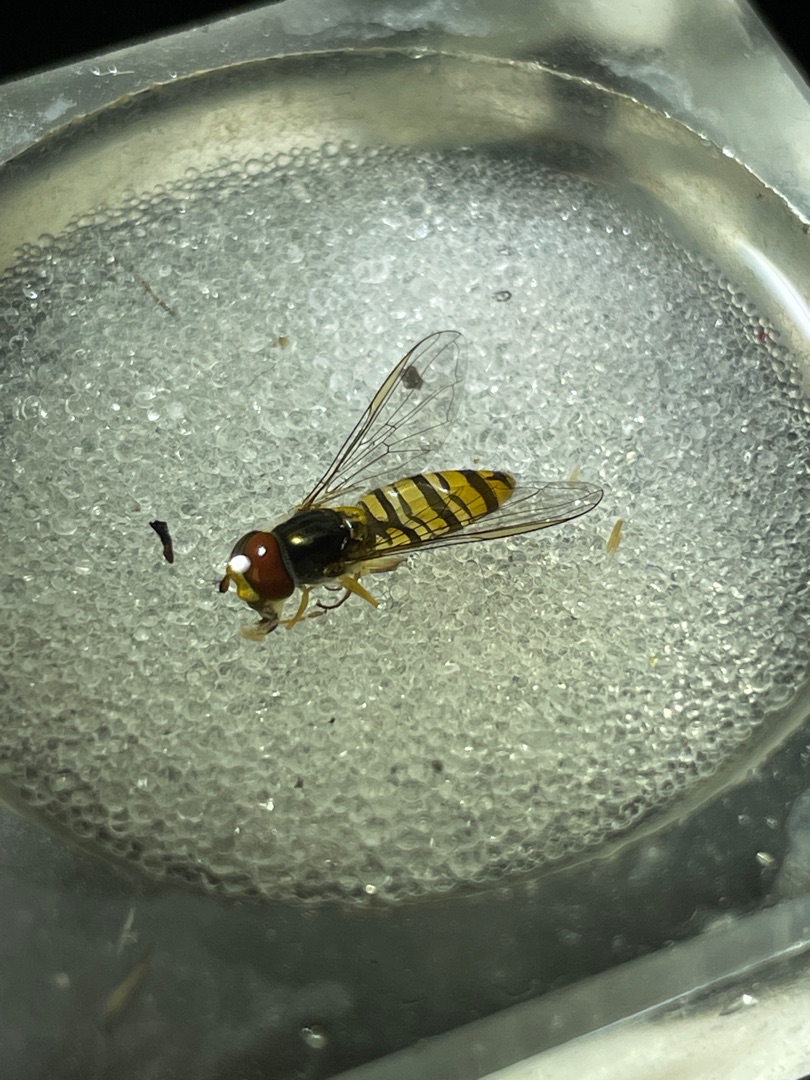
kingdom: Animalia
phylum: Arthropoda
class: Insecta
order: Diptera
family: Syrphidae
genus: Episyrphus
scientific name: Episyrphus balteatus
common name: Dobbeltbåndet svirreflue
